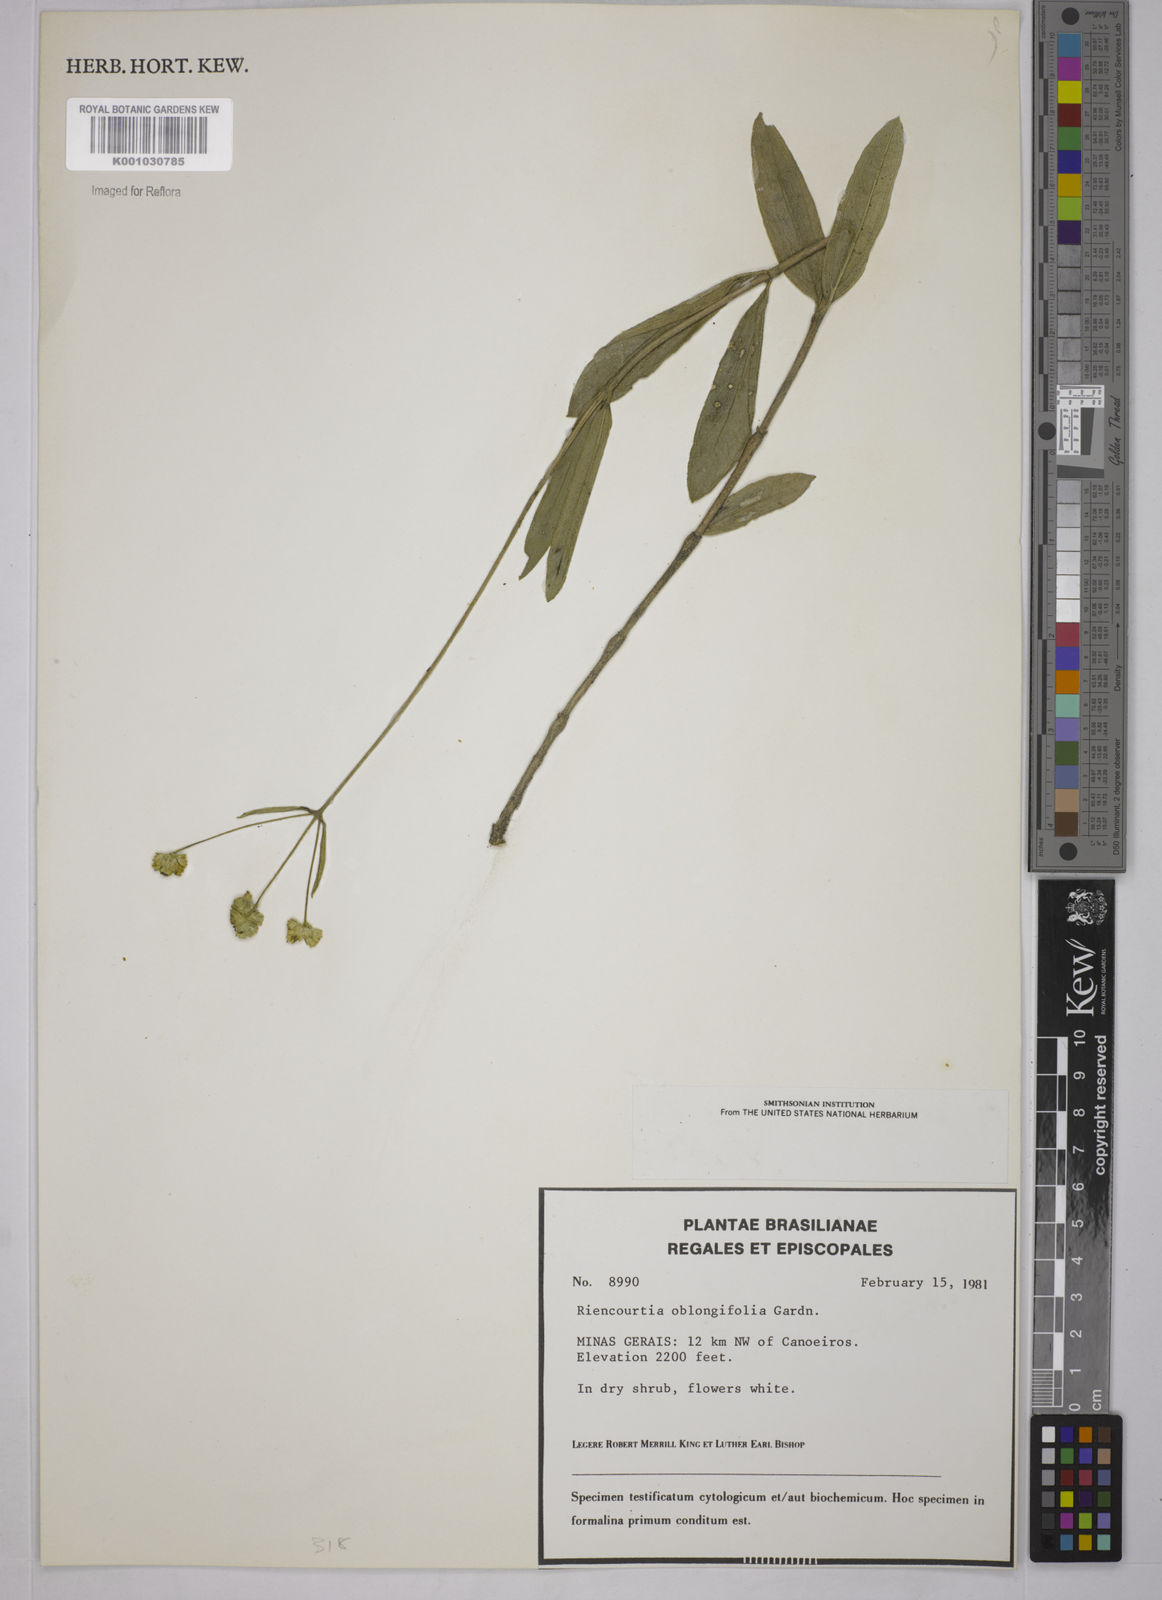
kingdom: Plantae
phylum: Tracheophyta
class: Magnoliopsida
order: Asterales
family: Asteraceae
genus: Riencourtia
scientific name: Riencourtia oblongifolia
